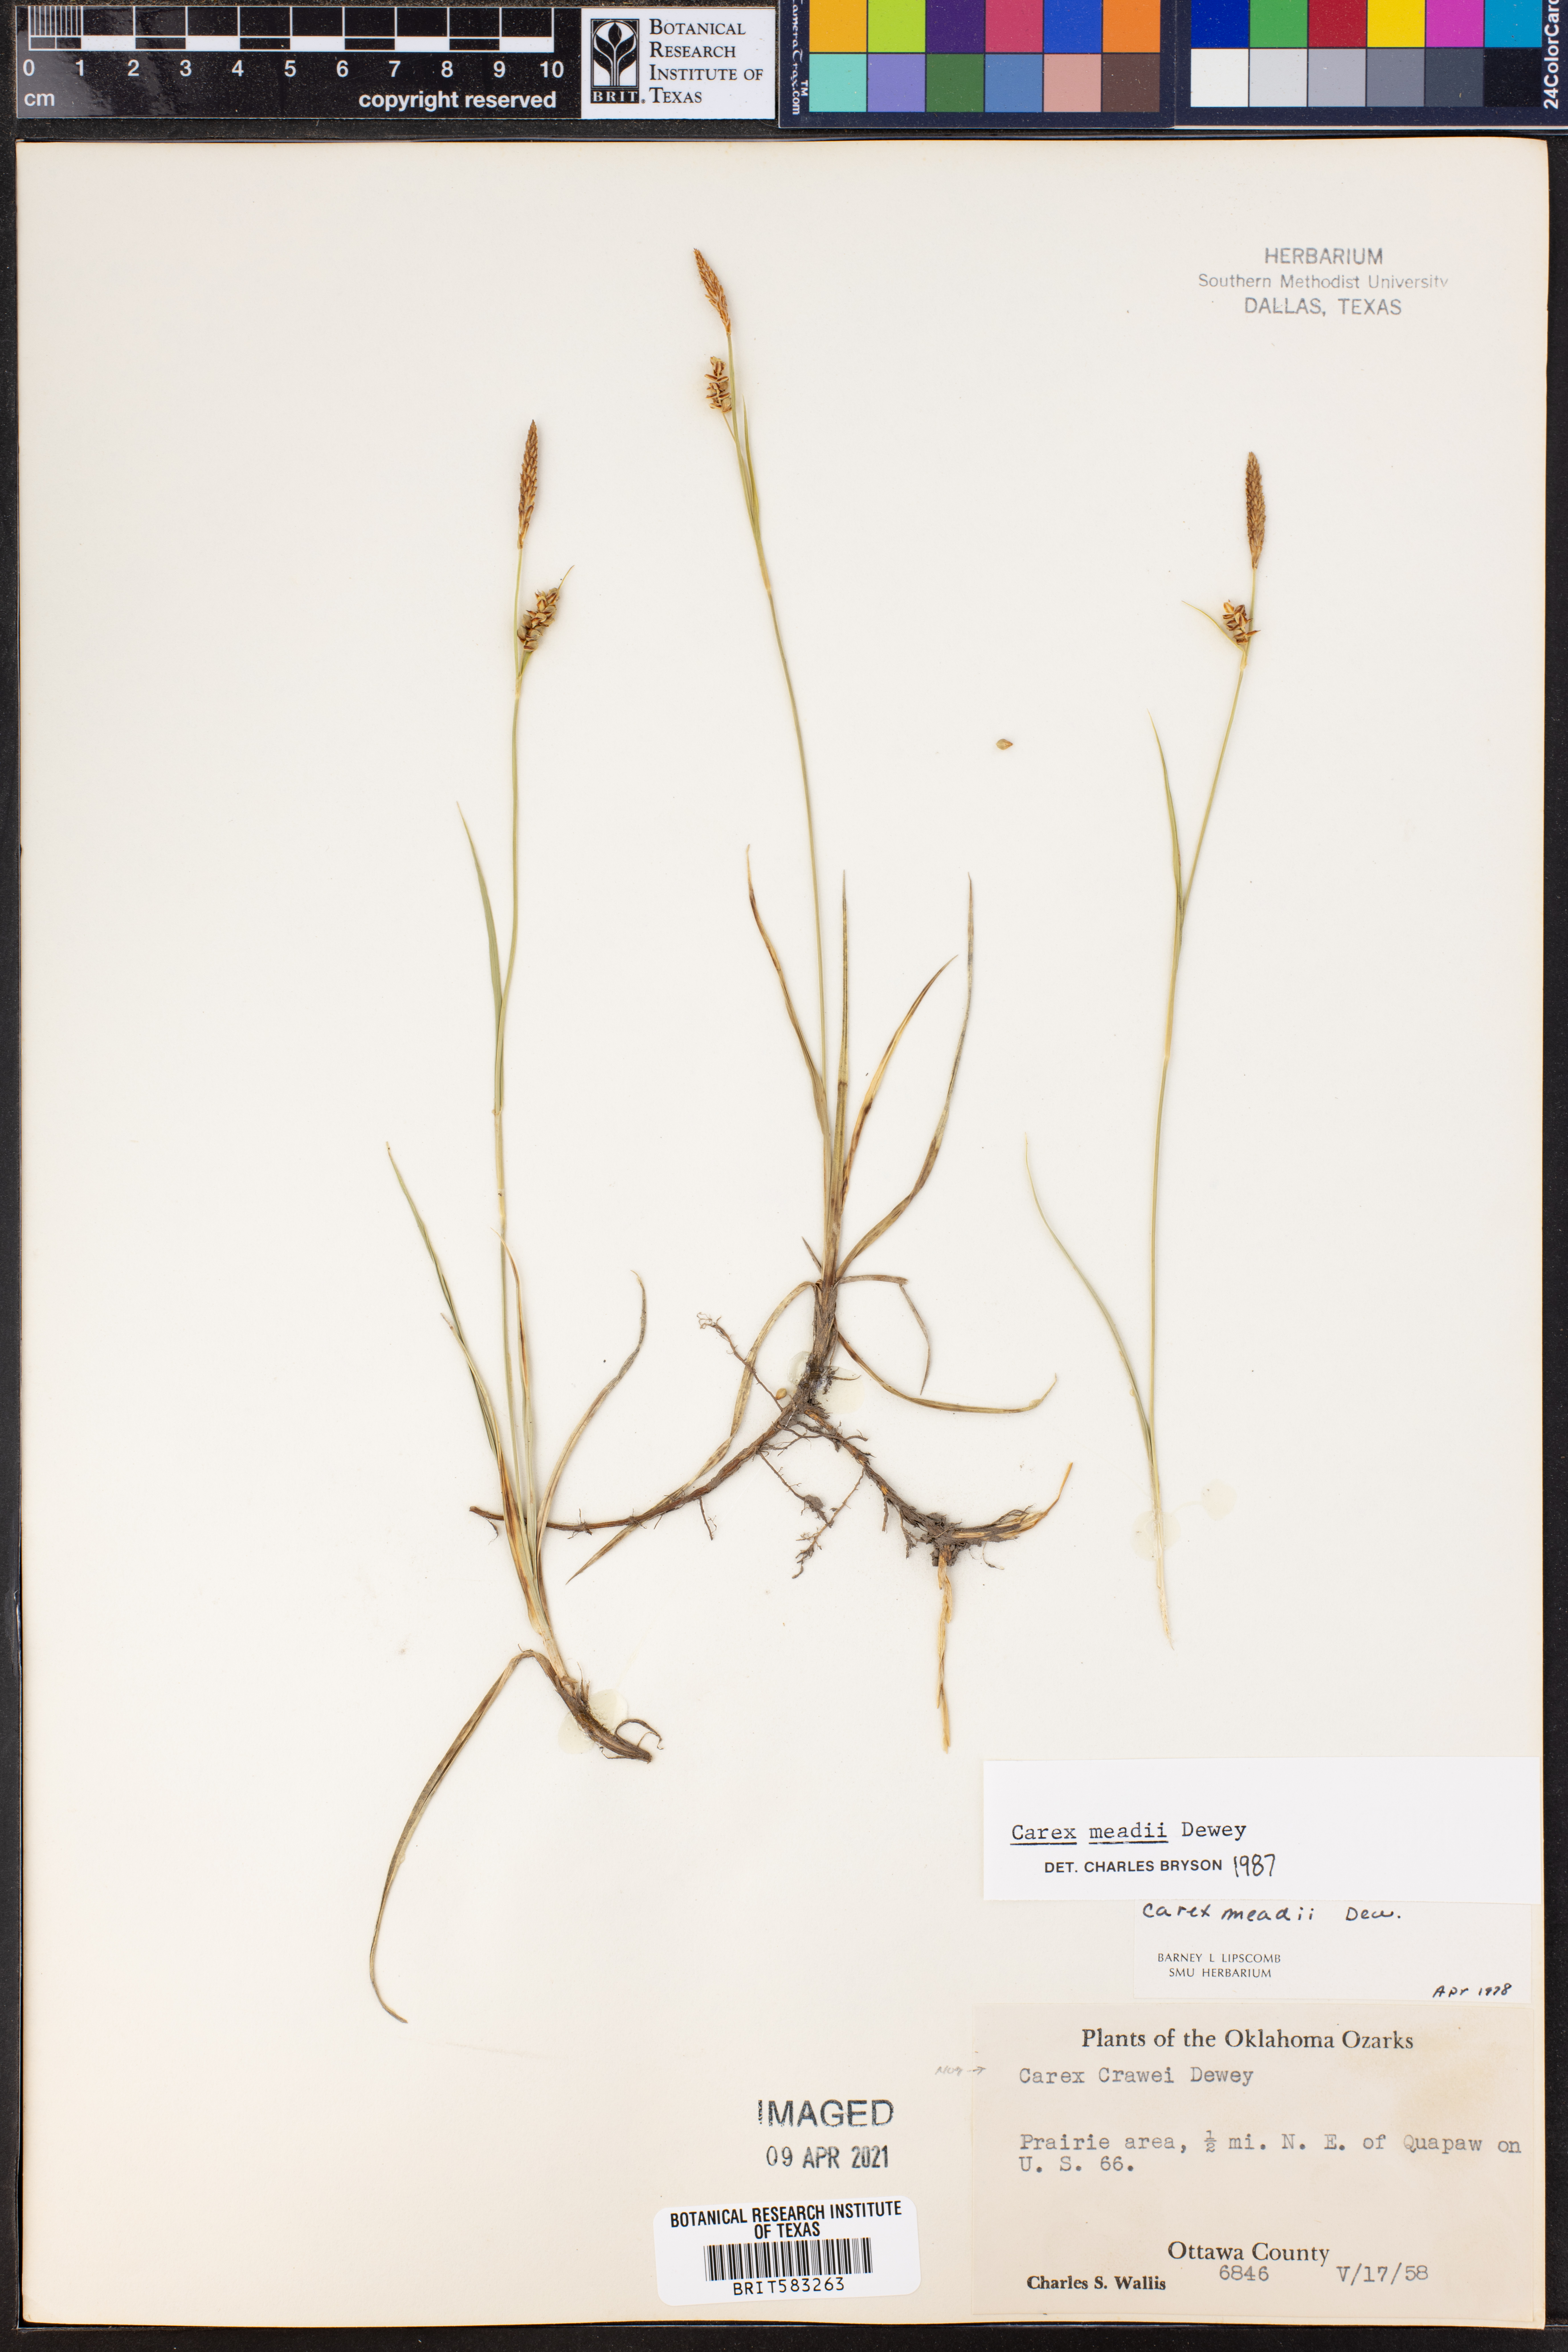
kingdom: Plantae
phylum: Tracheophyta
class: Liliopsida
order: Poales
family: Cyperaceae
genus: Carex
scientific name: Carex meadii
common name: Mead's sedge
